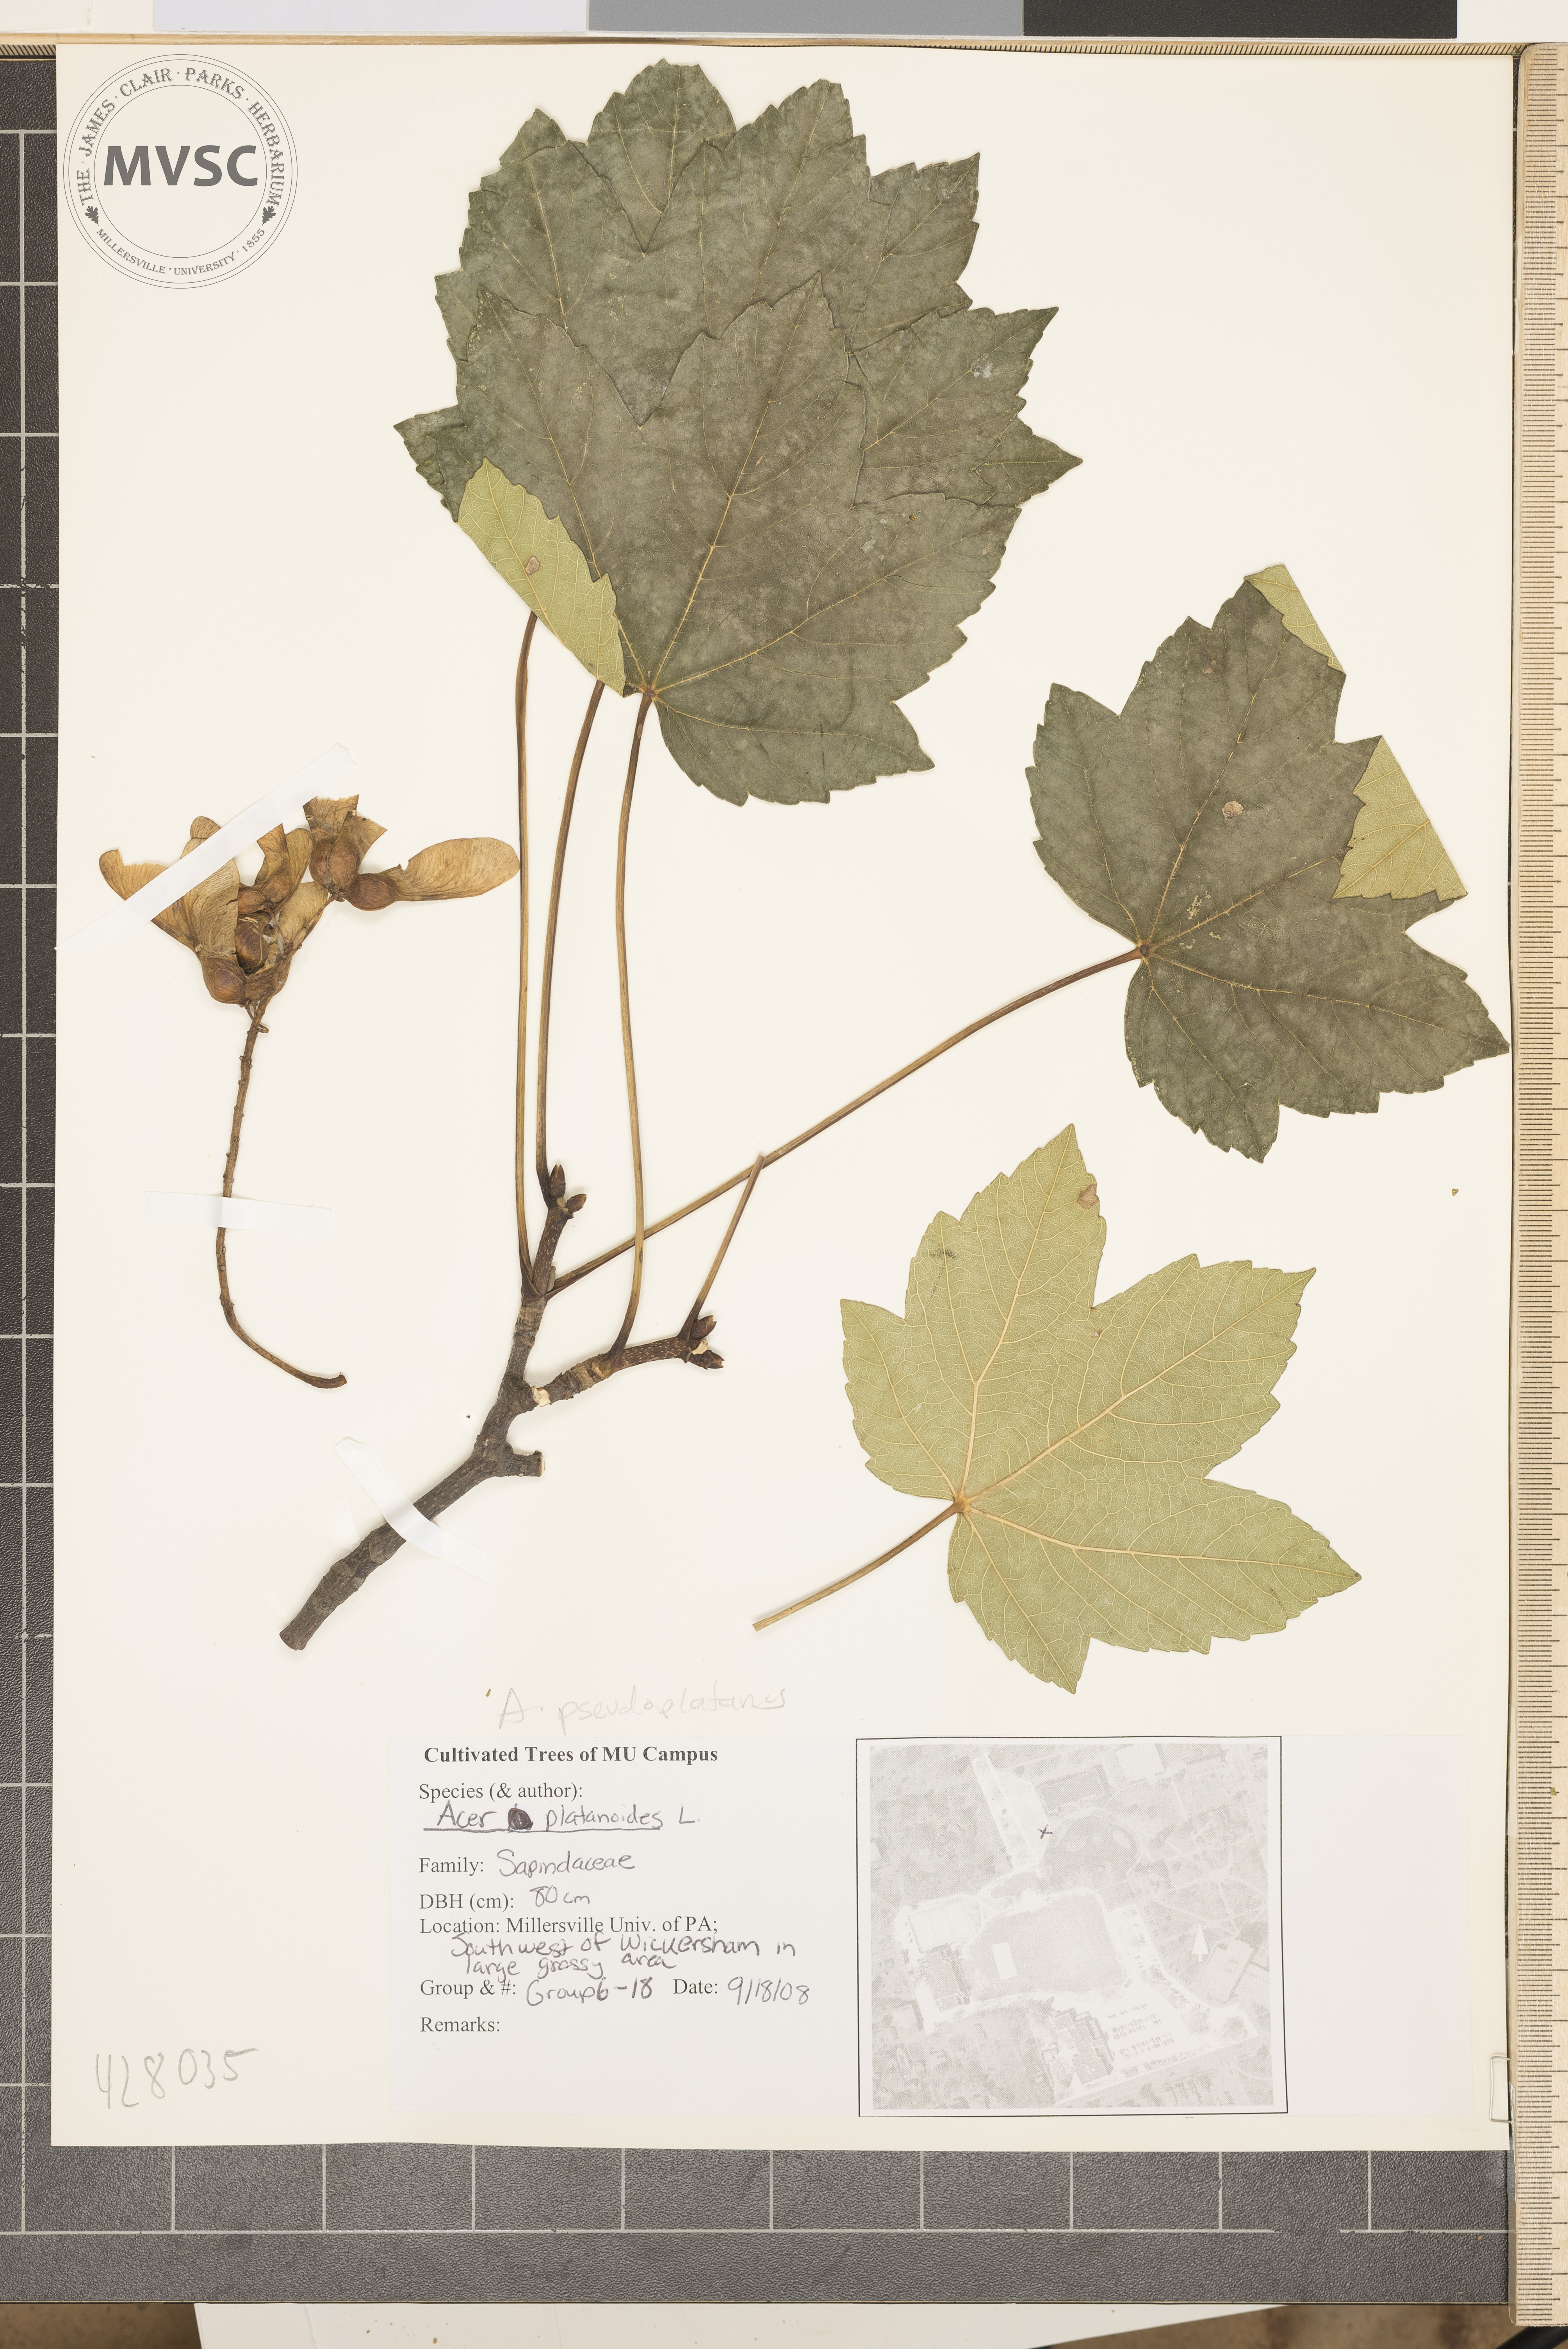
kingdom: Plantae
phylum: Tracheophyta
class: Magnoliopsida
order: Sapindales
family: Sapindaceae
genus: Acer
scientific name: Acer pseudoplatanus
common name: Sycamore
